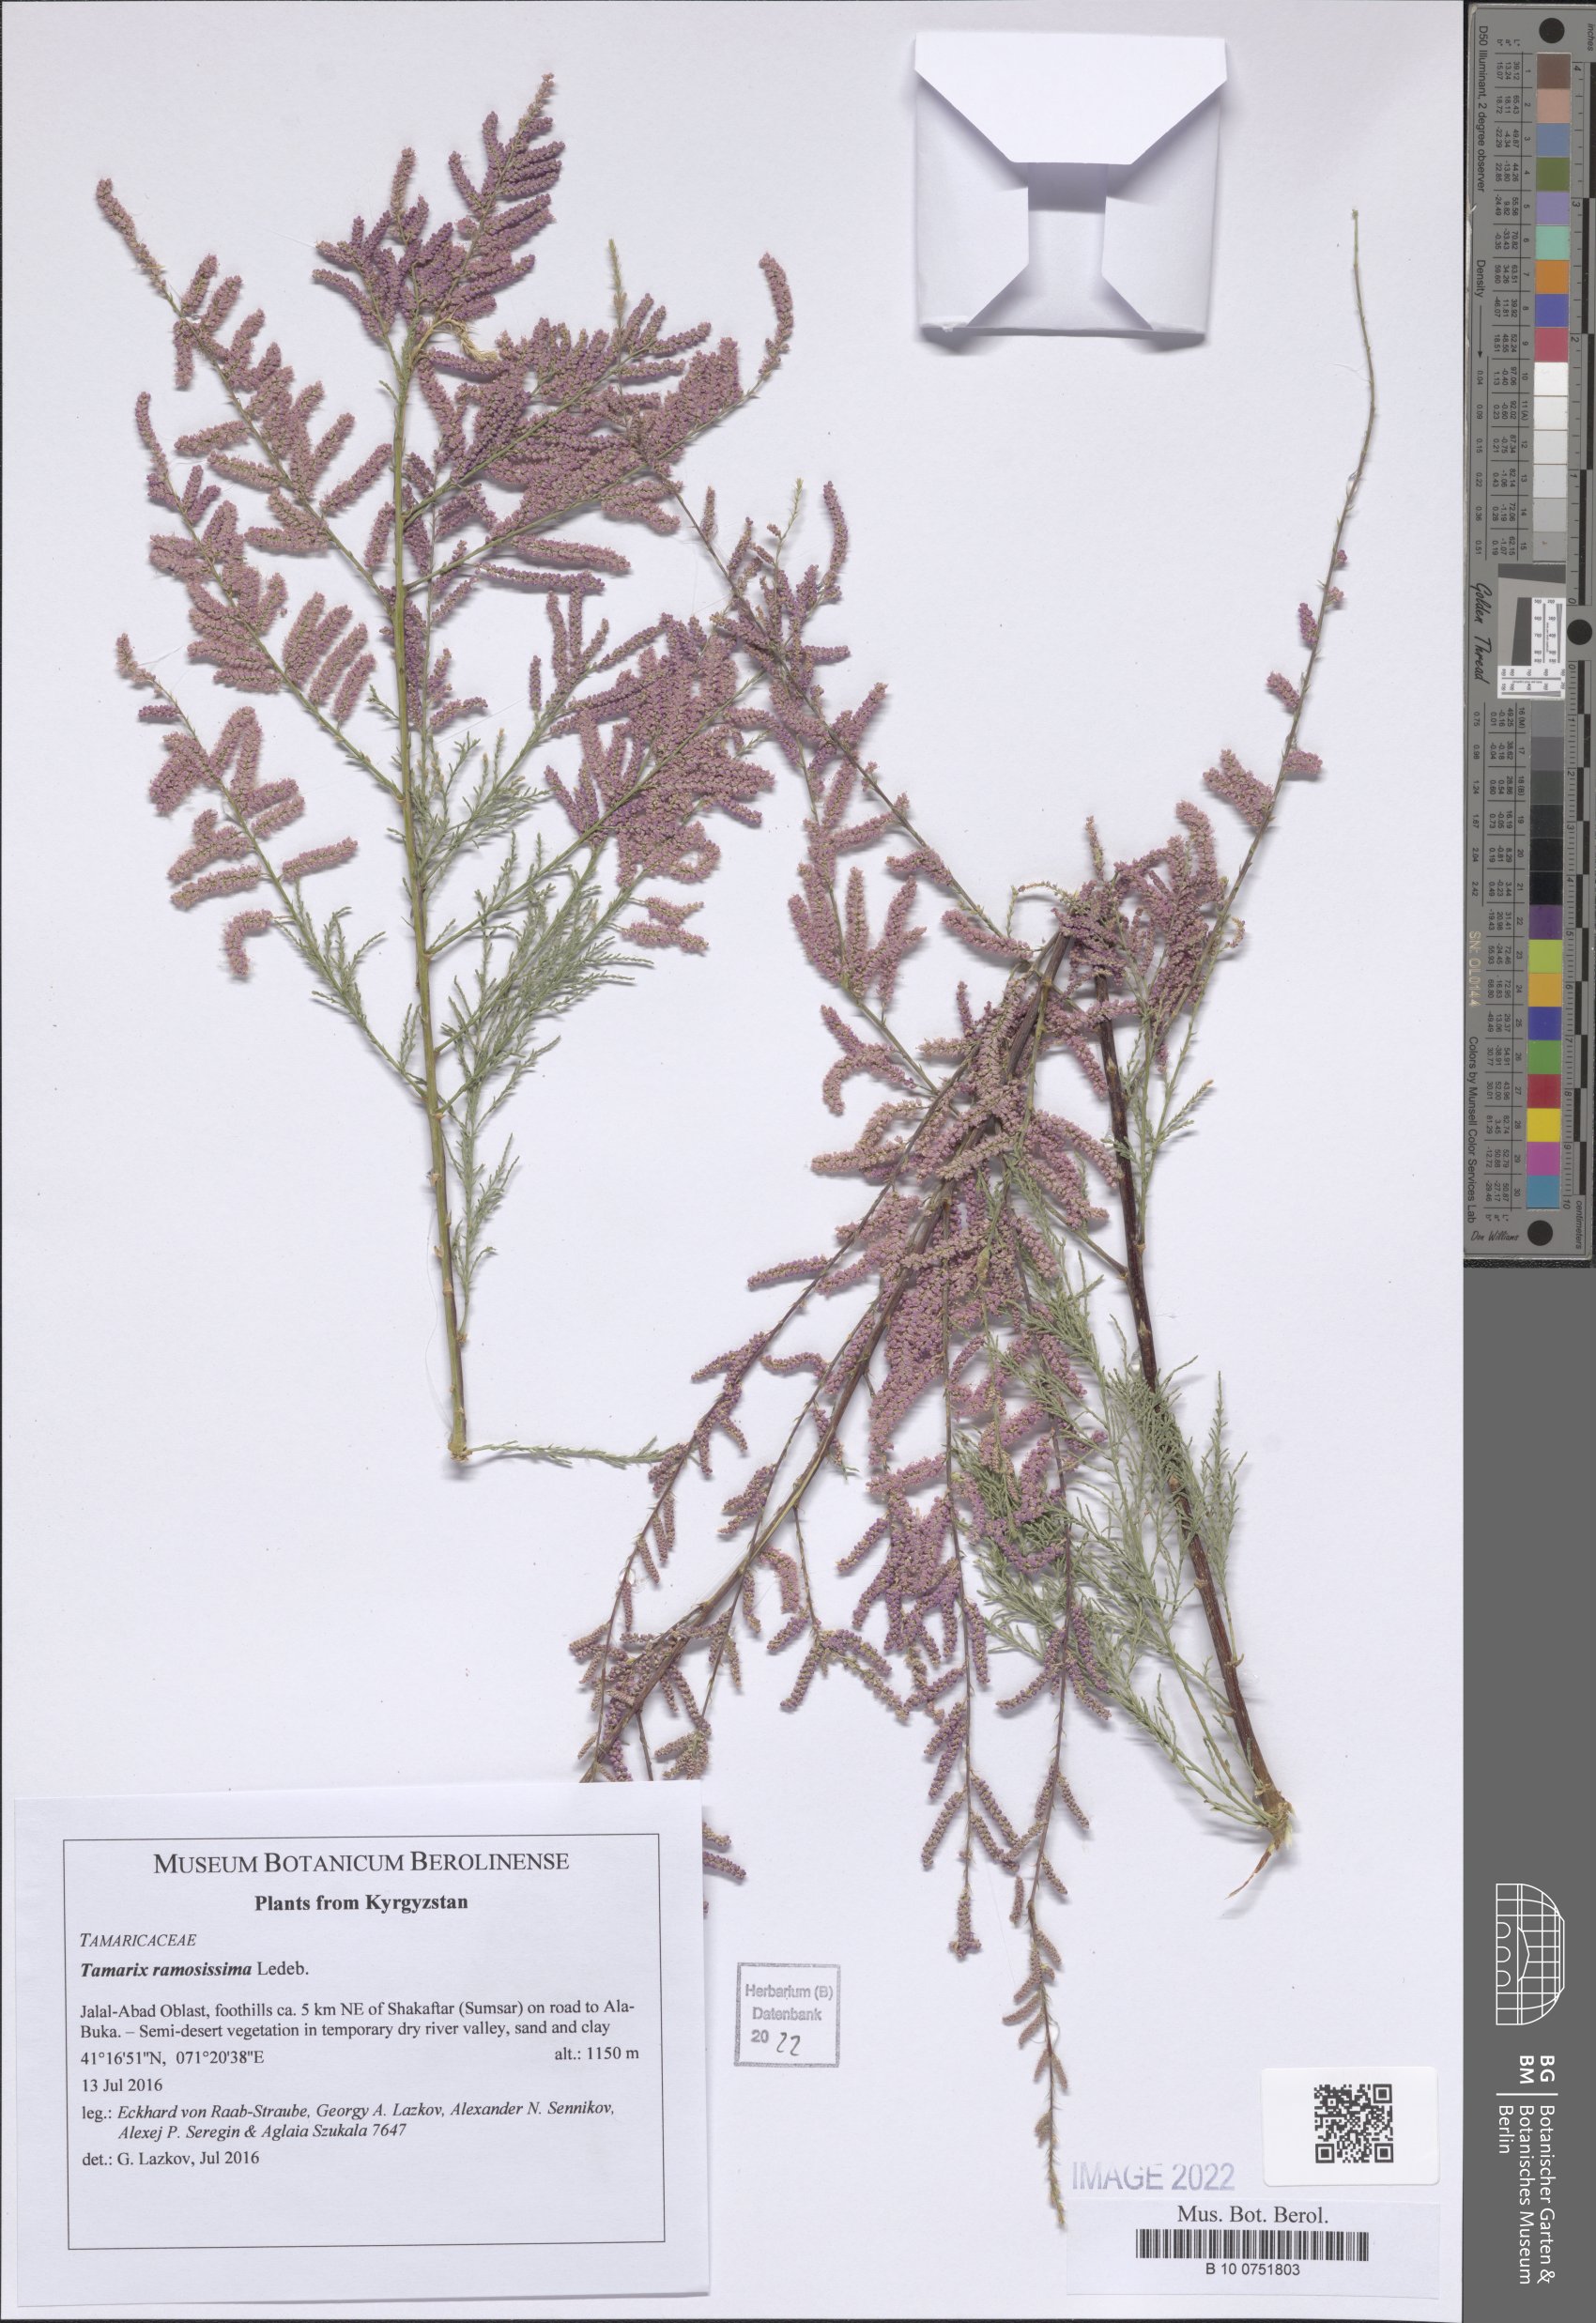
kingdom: Plantae
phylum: Tracheophyta
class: Magnoliopsida
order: Caryophyllales
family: Tamaricaceae
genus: Tamarix
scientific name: Tamarix ramosissima
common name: Pink tamarisk
